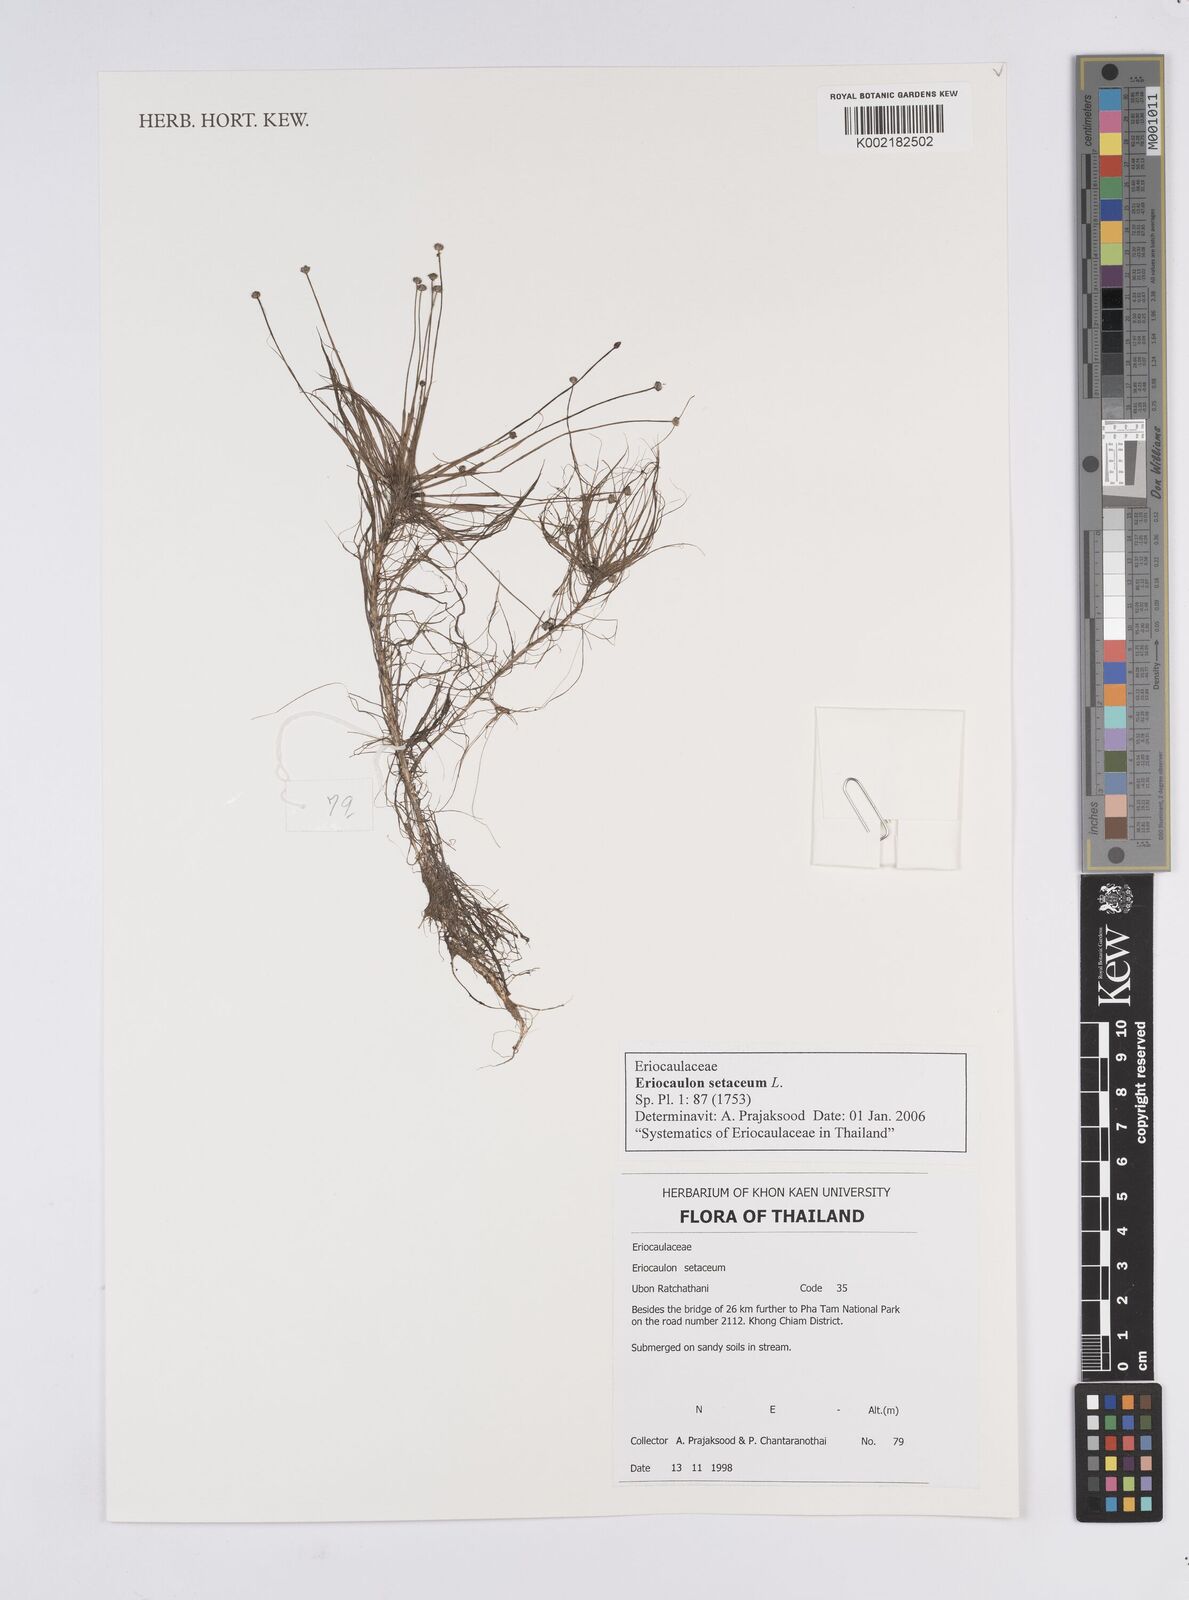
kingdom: Plantae
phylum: Tracheophyta
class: Liliopsida
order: Poales
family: Eriocaulaceae
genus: Eriocaulon
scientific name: Eriocaulon setaceum
